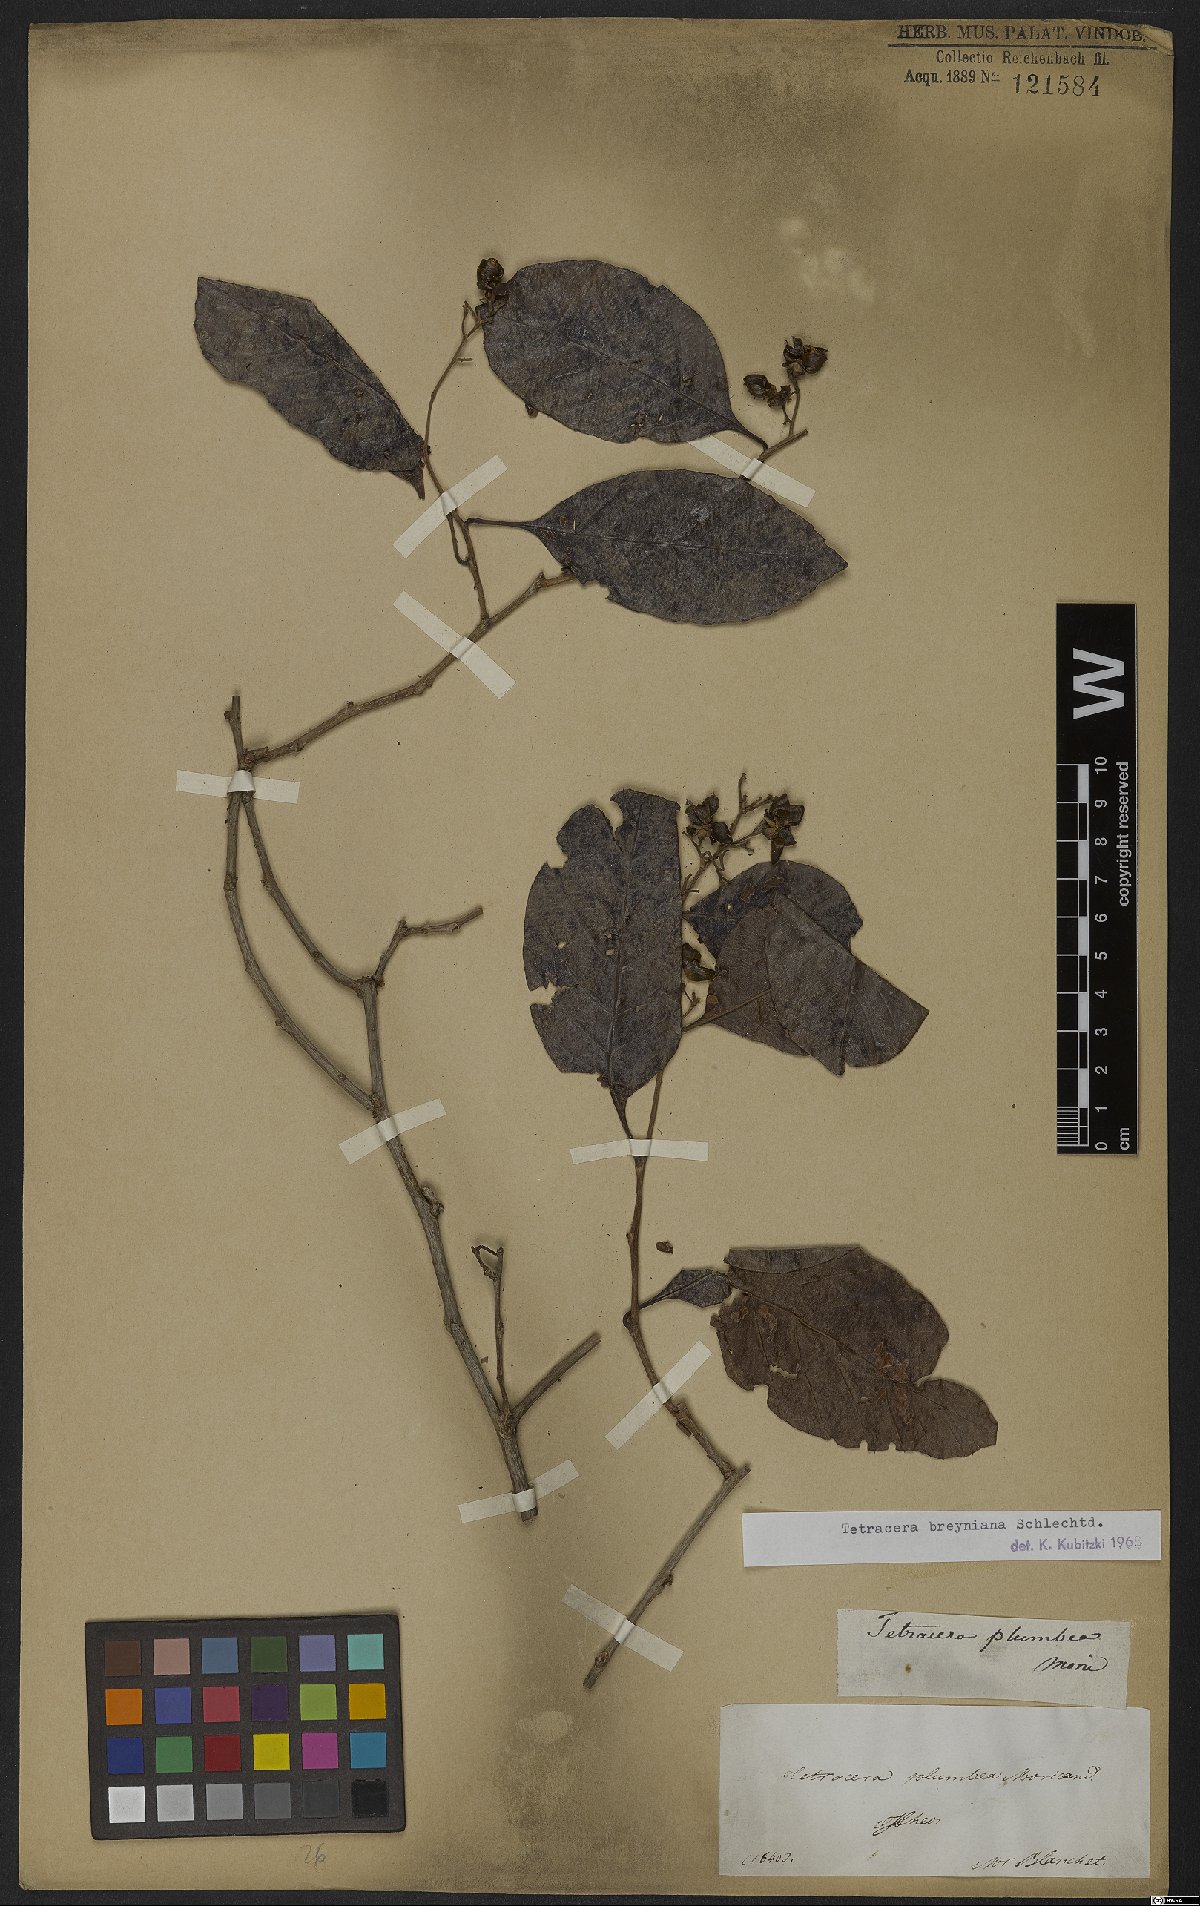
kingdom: Plantae
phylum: Tracheophyta
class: Magnoliopsida
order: Dilleniales
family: Dilleniaceae
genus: Tetracera
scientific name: Tetracera breyniana
